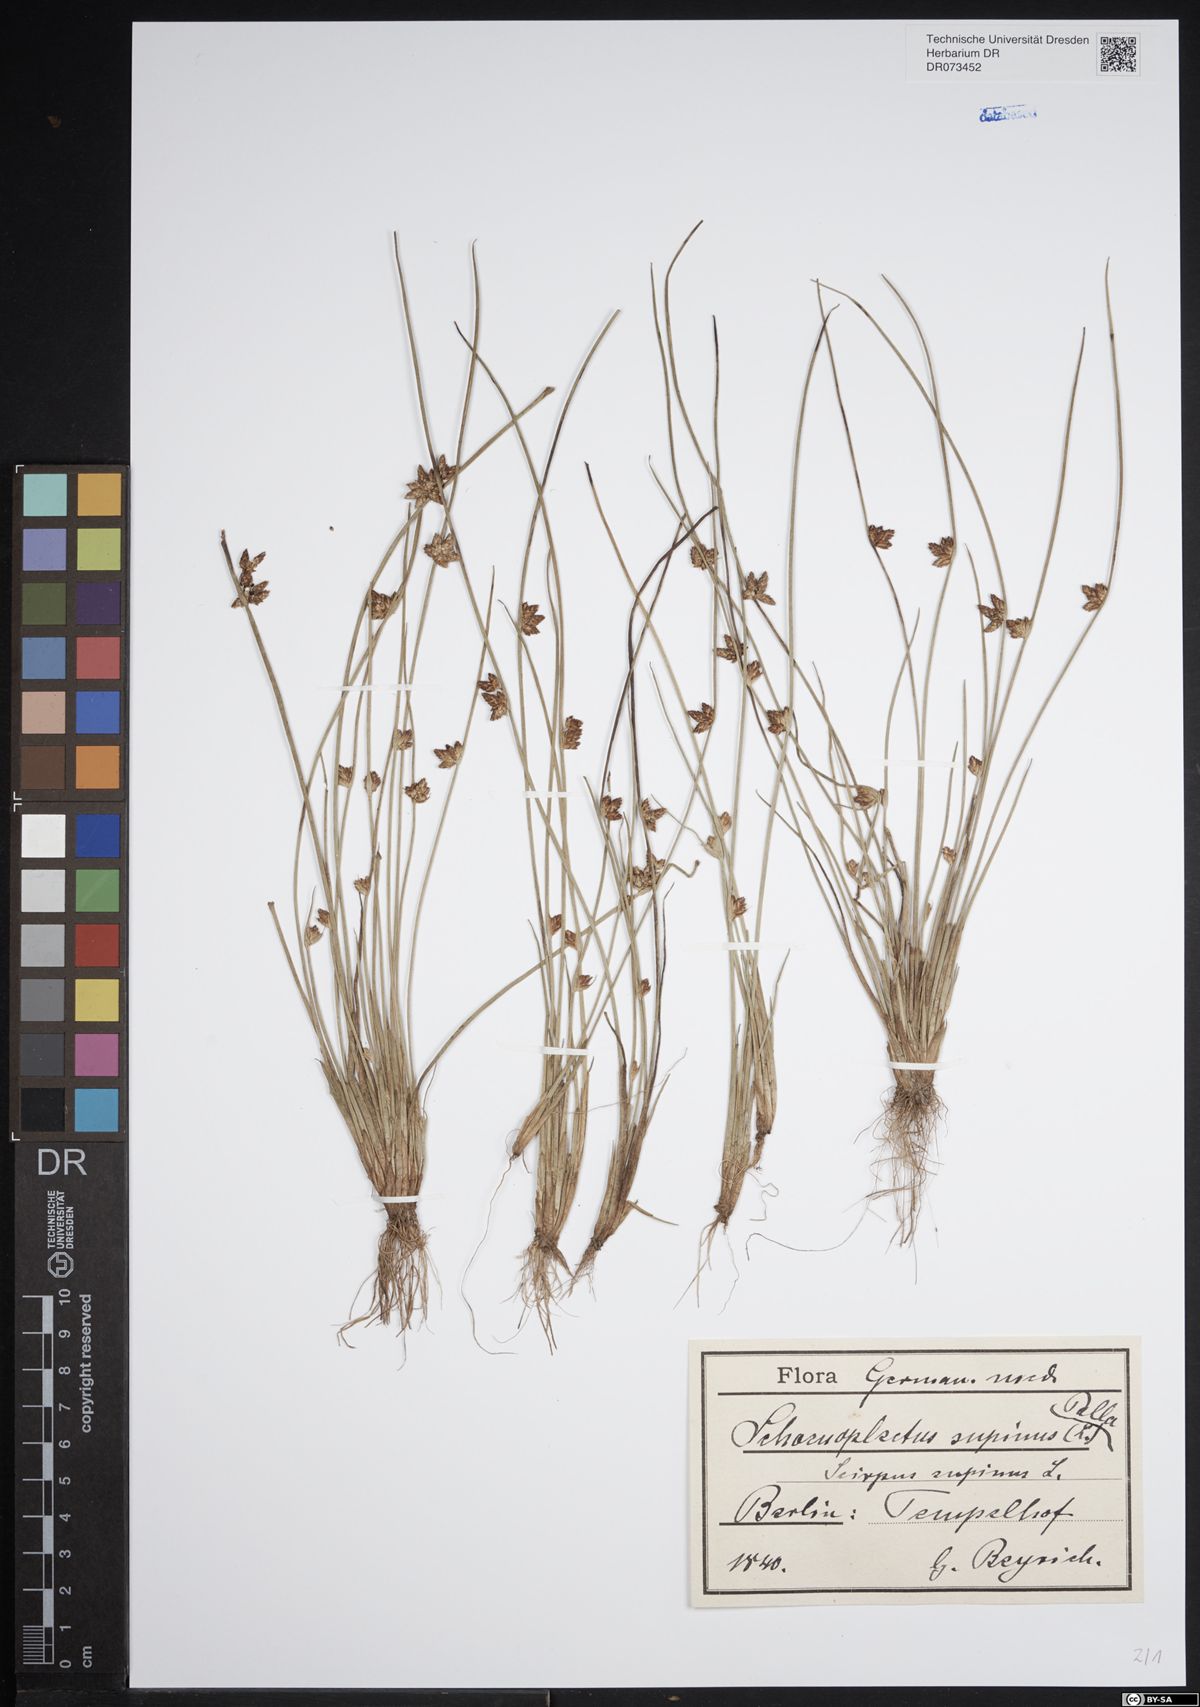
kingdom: Plantae
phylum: Tracheophyta
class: Liliopsida
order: Poales
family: Cyperaceae
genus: Schoenoplectiella
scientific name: Schoenoplectiella supina
